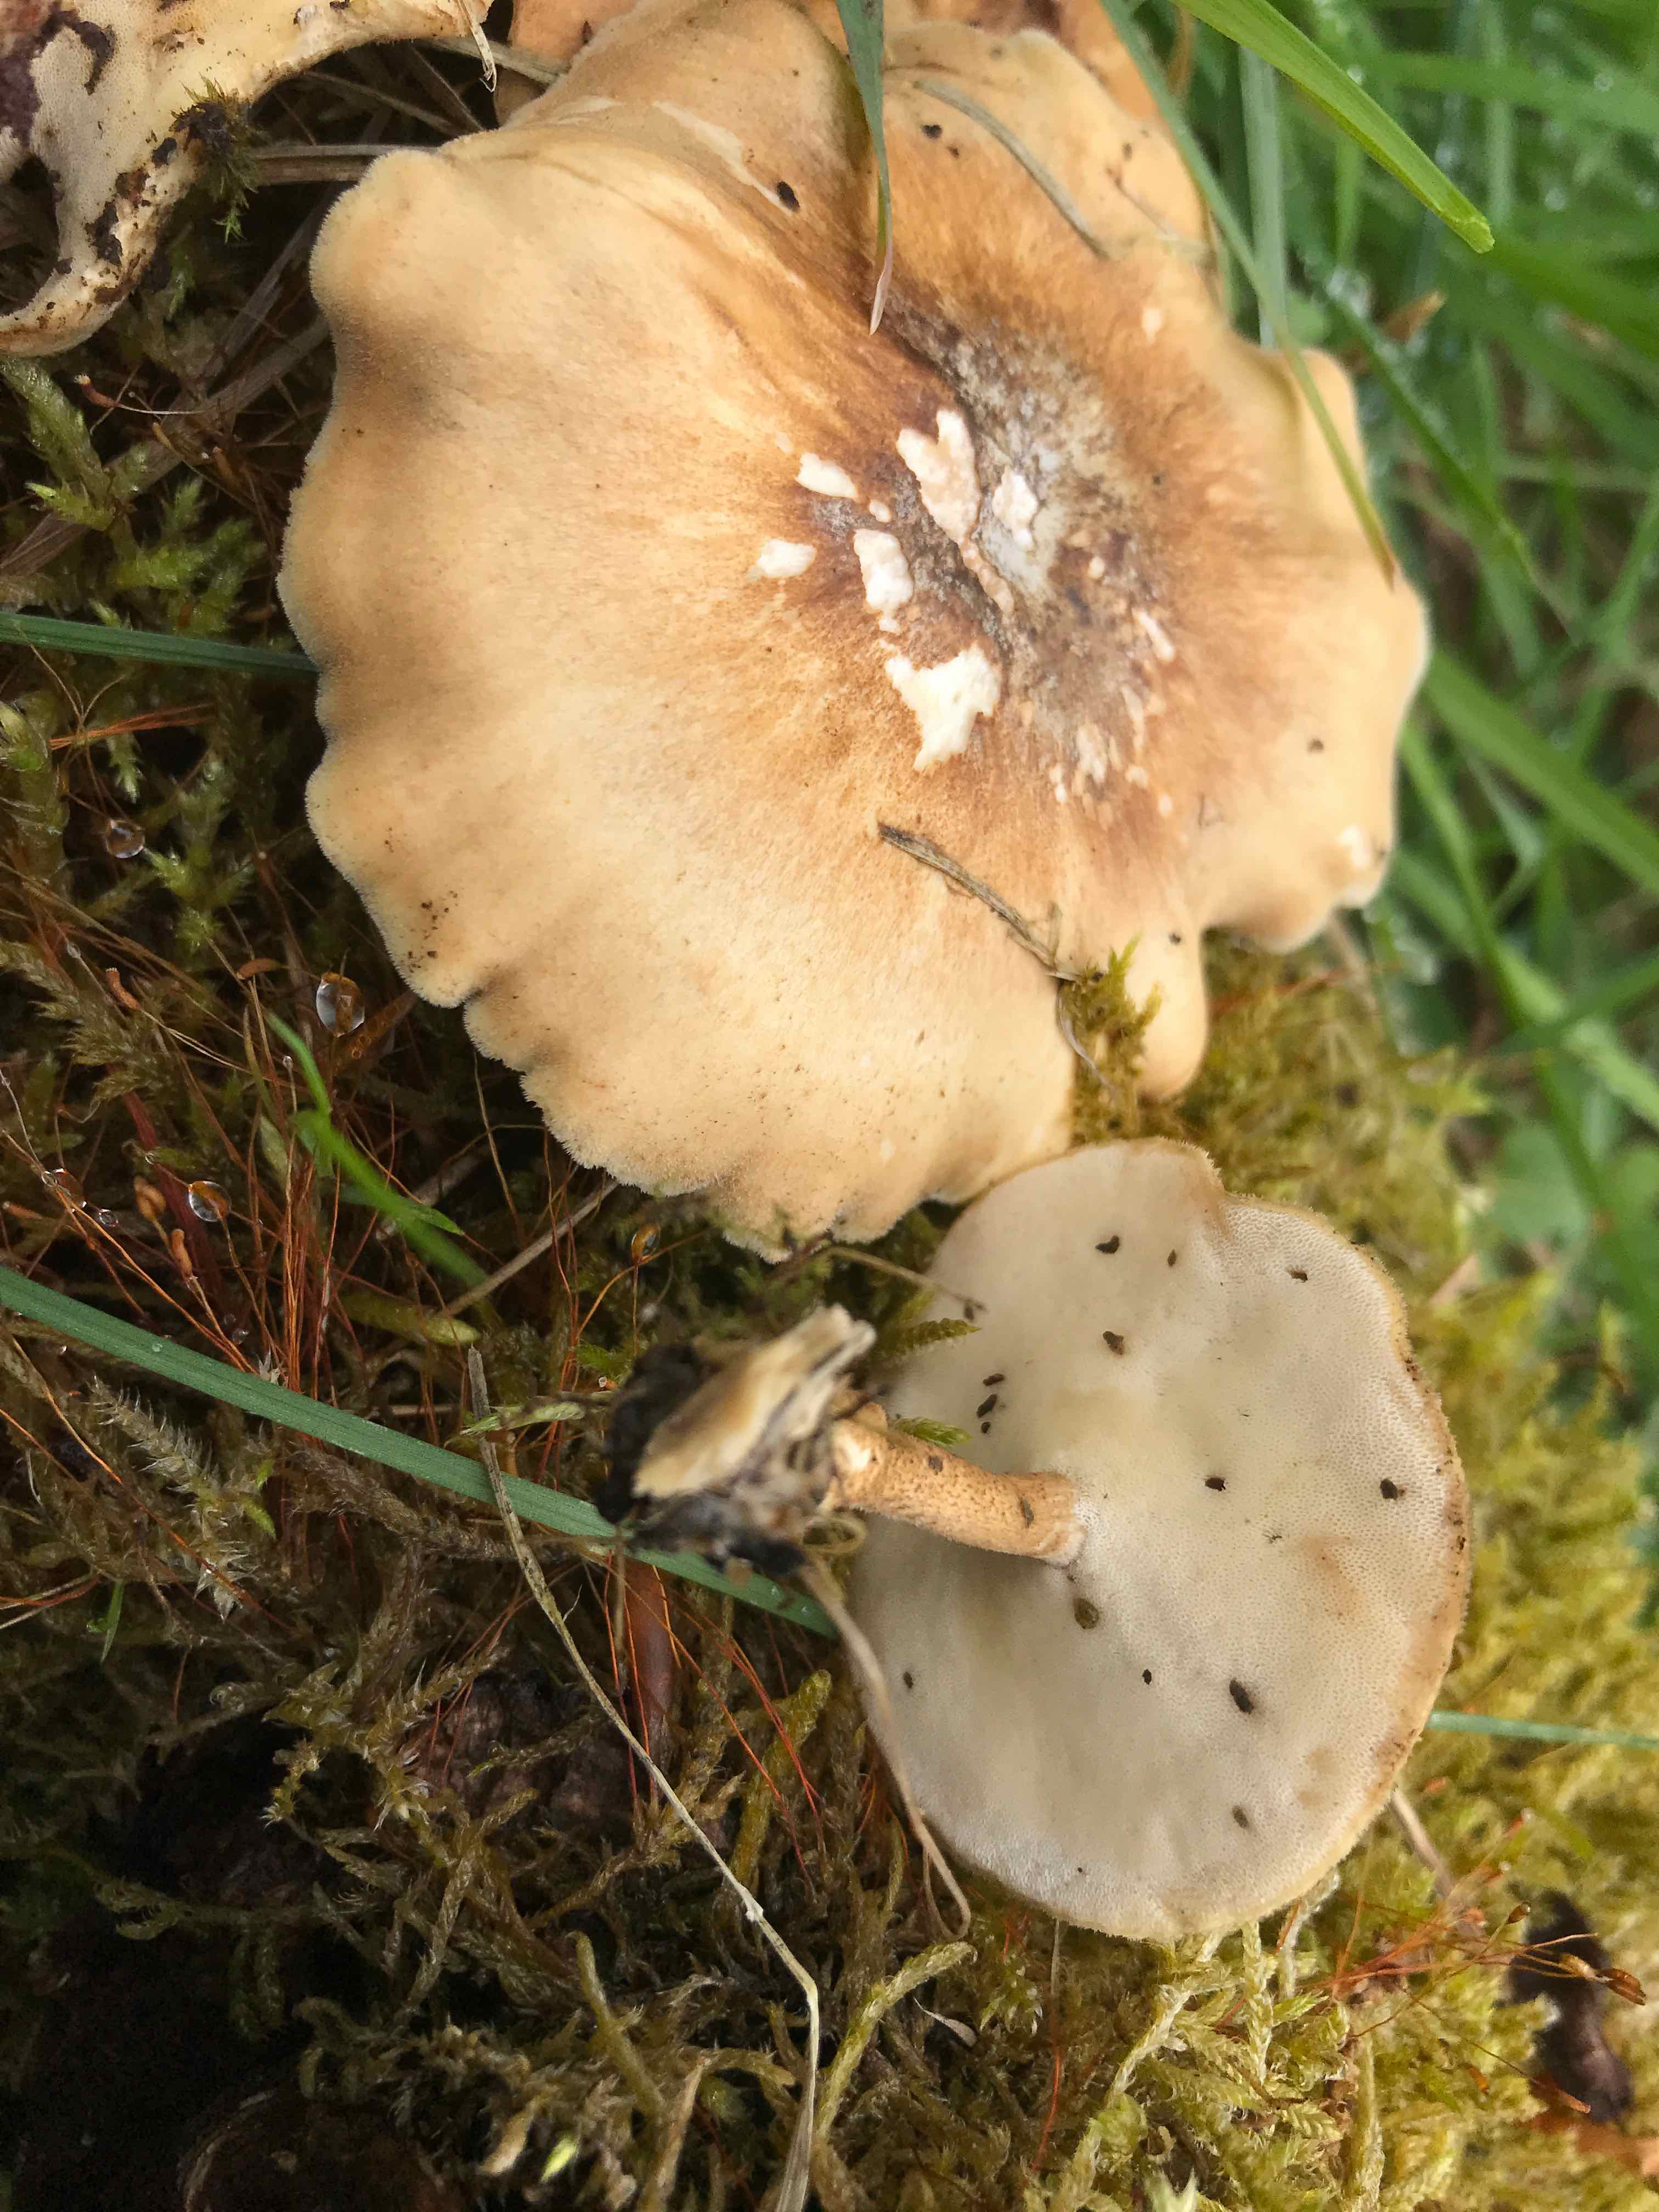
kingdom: Fungi
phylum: Basidiomycota
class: Agaricomycetes
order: Polyporales
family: Polyporaceae
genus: Lentinus
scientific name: Lentinus substrictus
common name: forårs-stilkporesvamp
